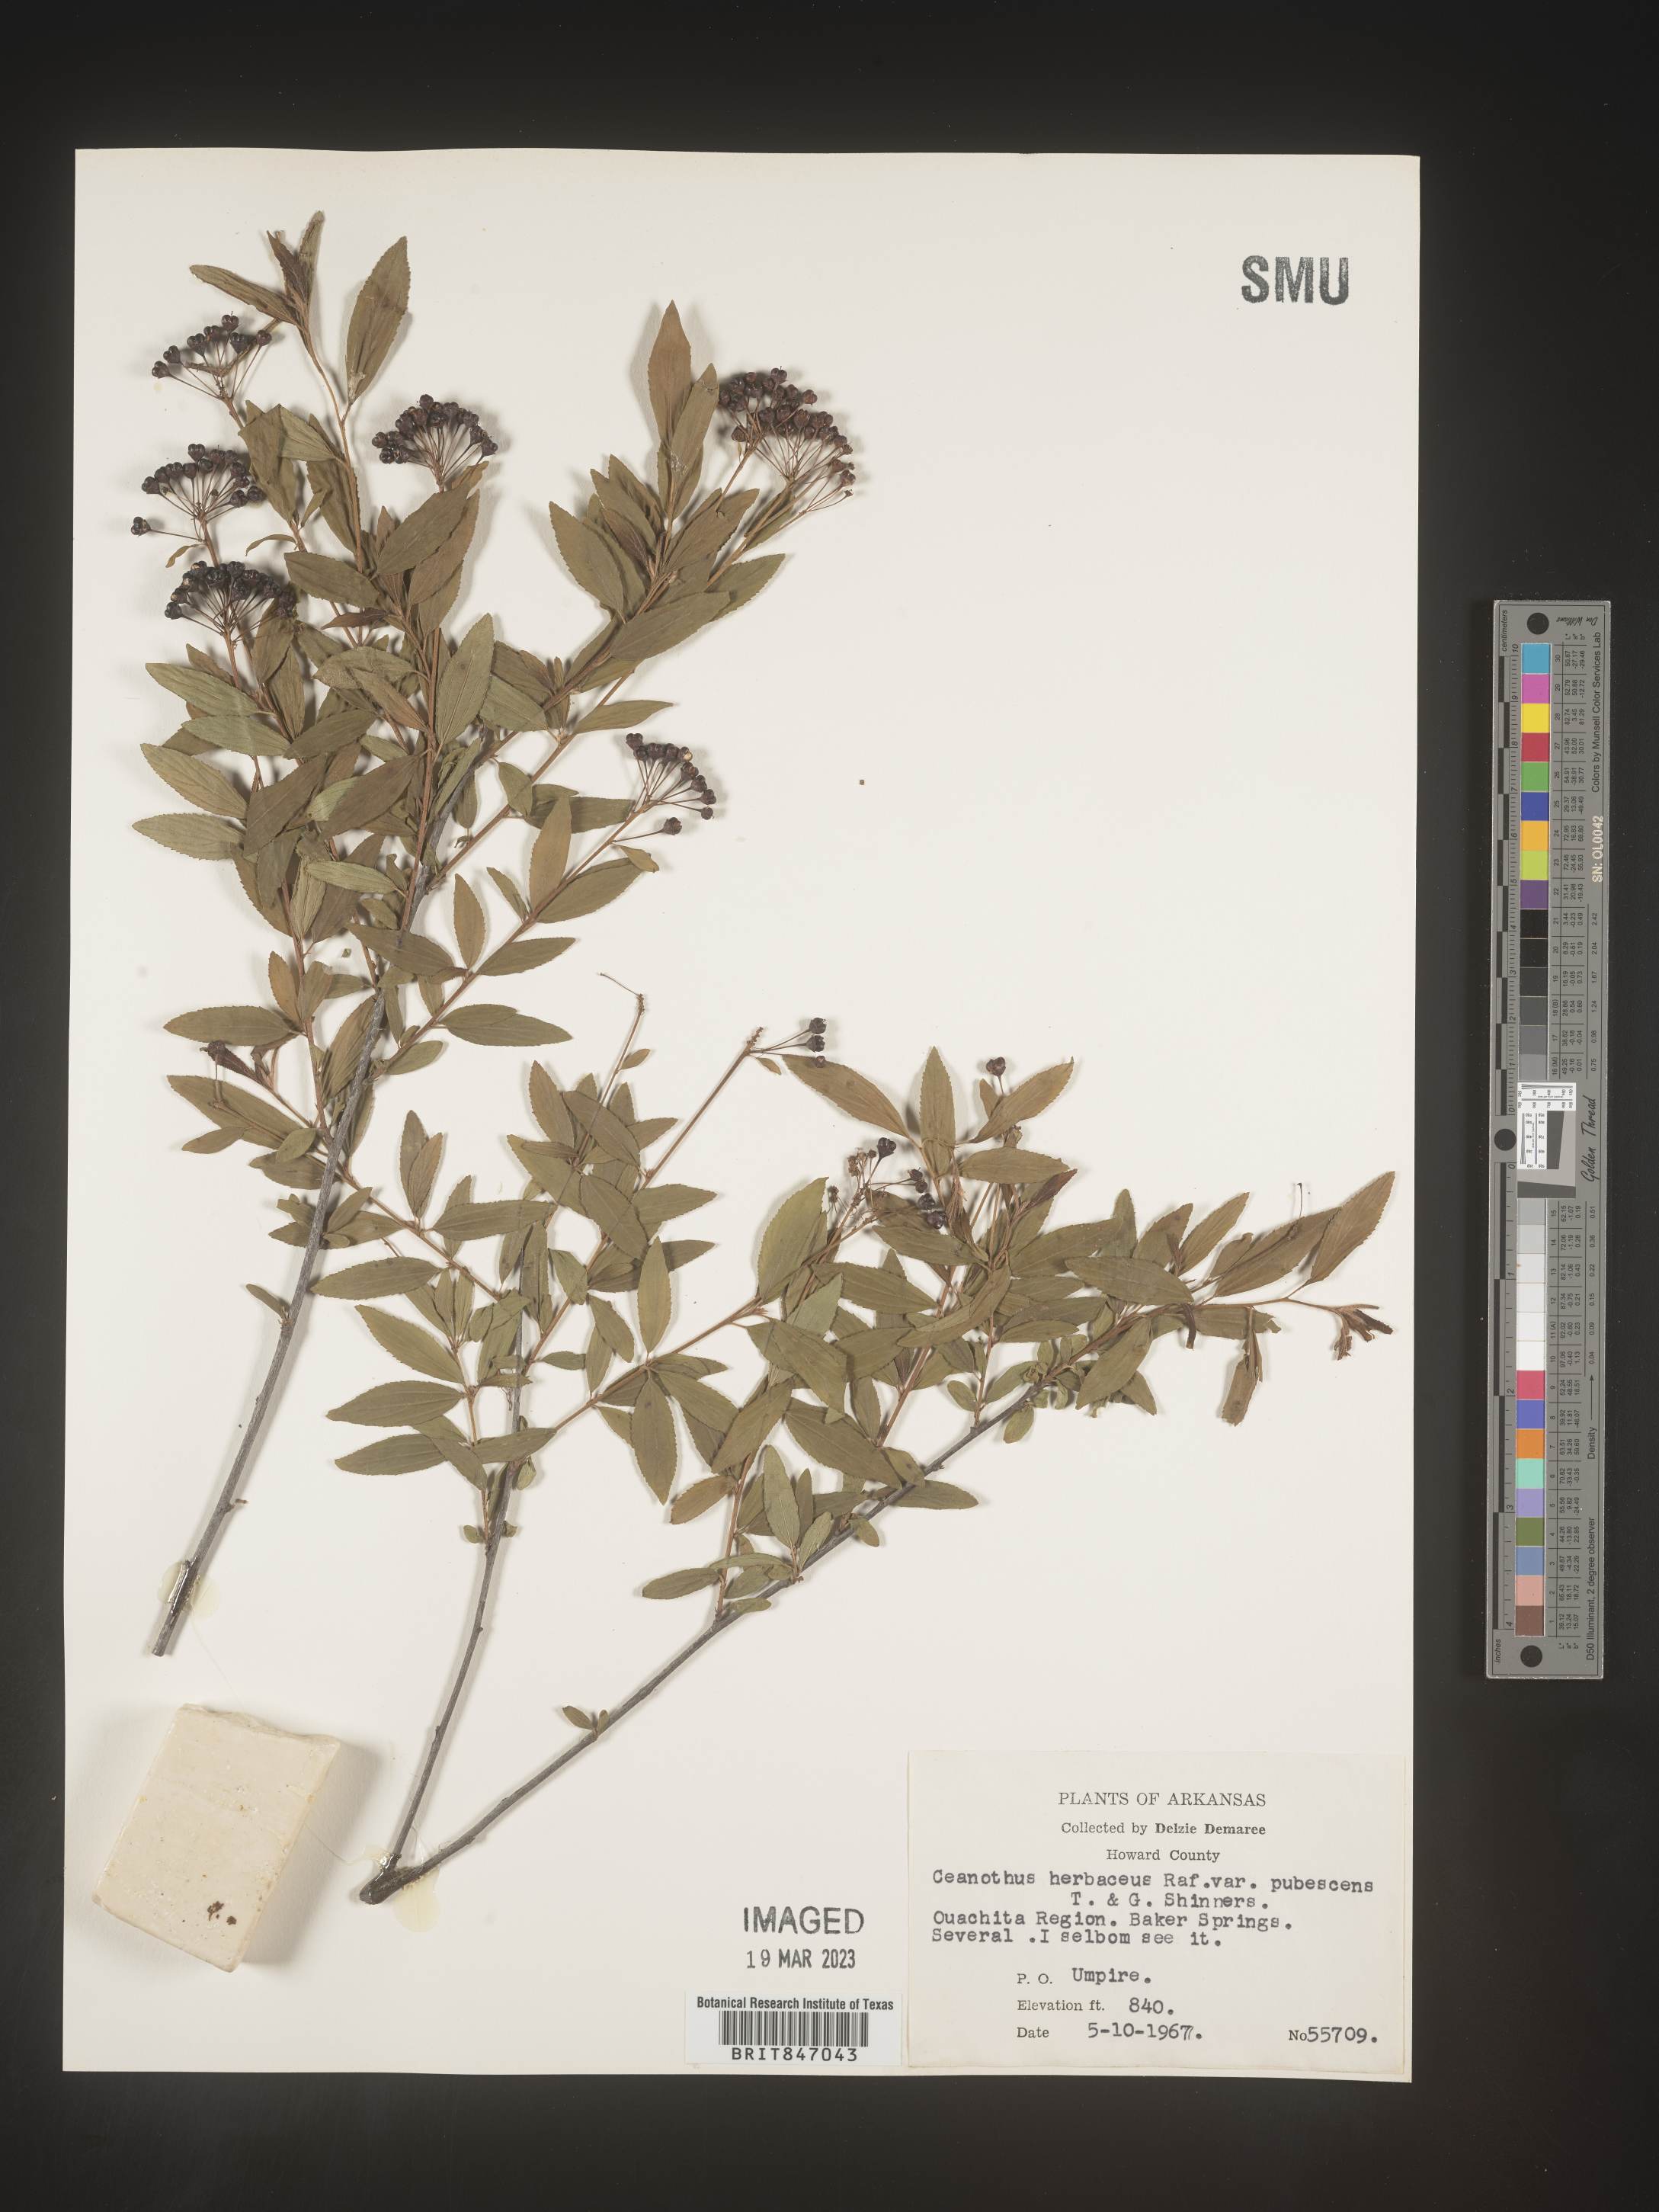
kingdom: Plantae
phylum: Tracheophyta
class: Magnoliopsida
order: Rosales
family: Rhamnaceae
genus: Ceanothus
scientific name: Ceanothus herbaceus
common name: Inland ceanothus
